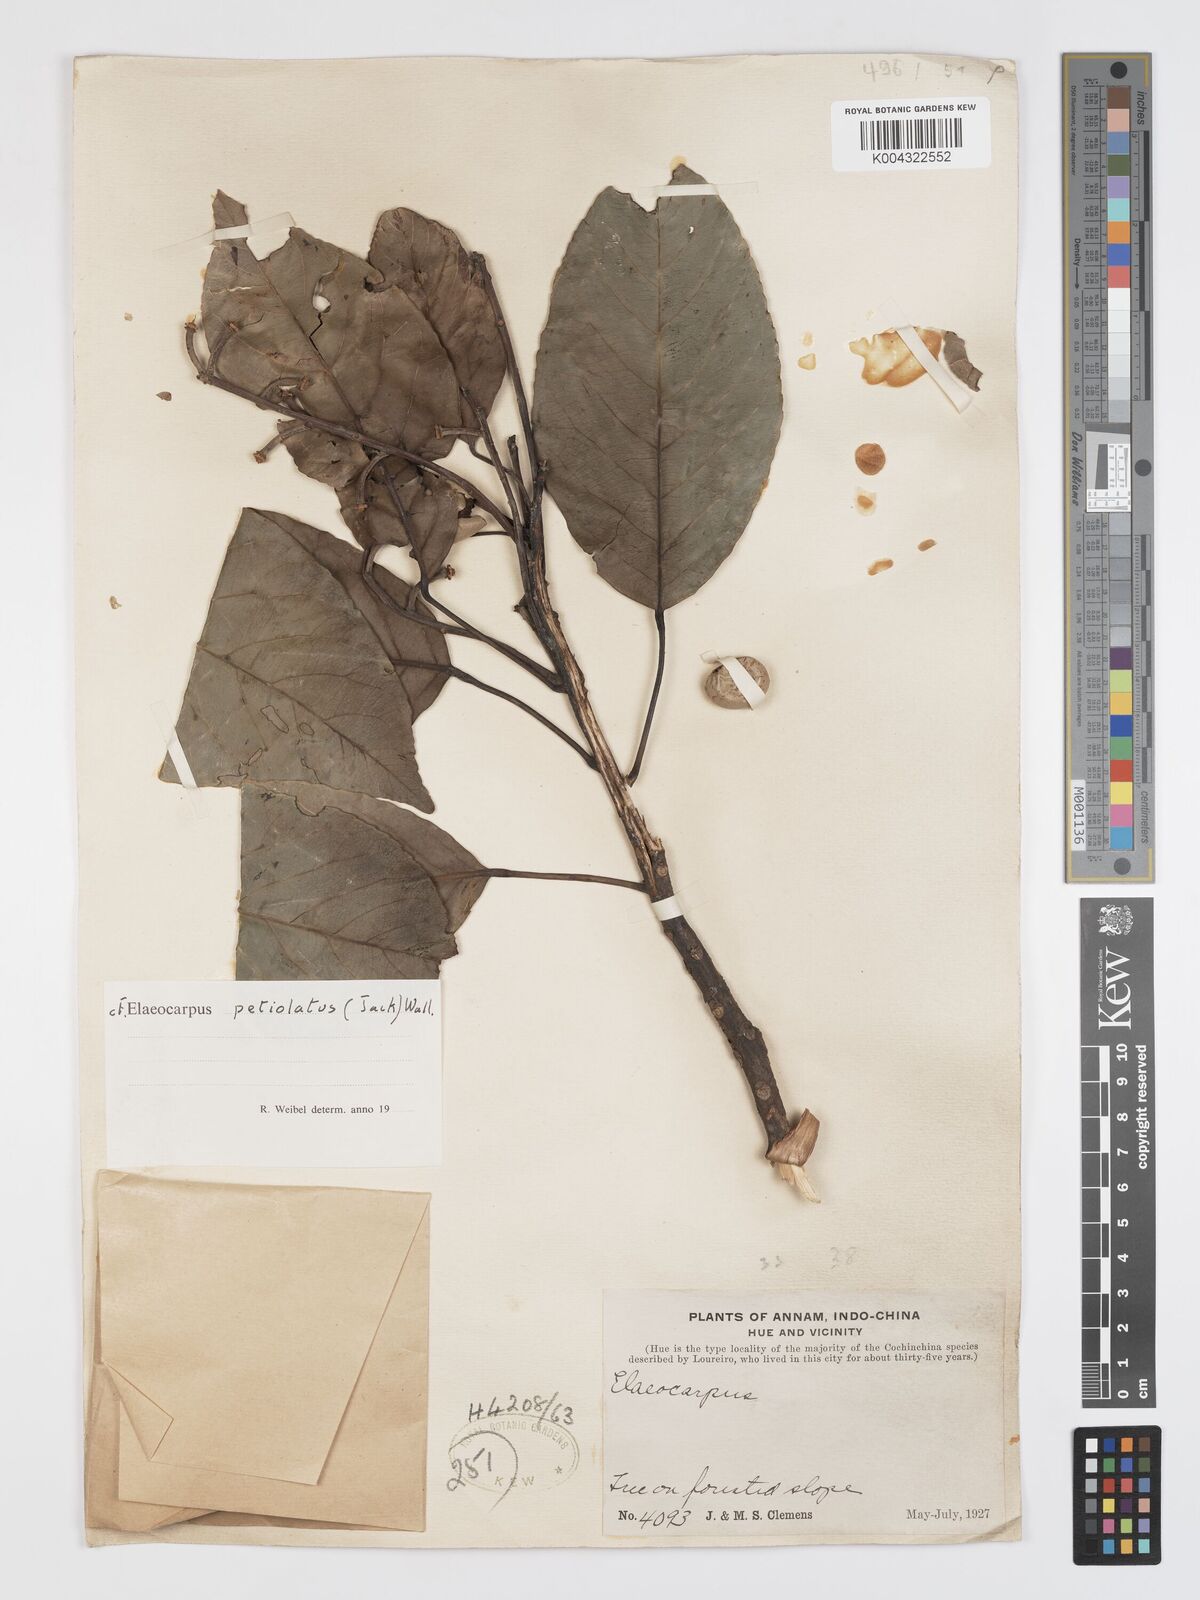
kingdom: Plantae
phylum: Tracheophyta
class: Magnoliopsida
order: Oxalidales
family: Elaeocarpaceae
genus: Elaeocarpus
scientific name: Elaeocarpus petiolatus
